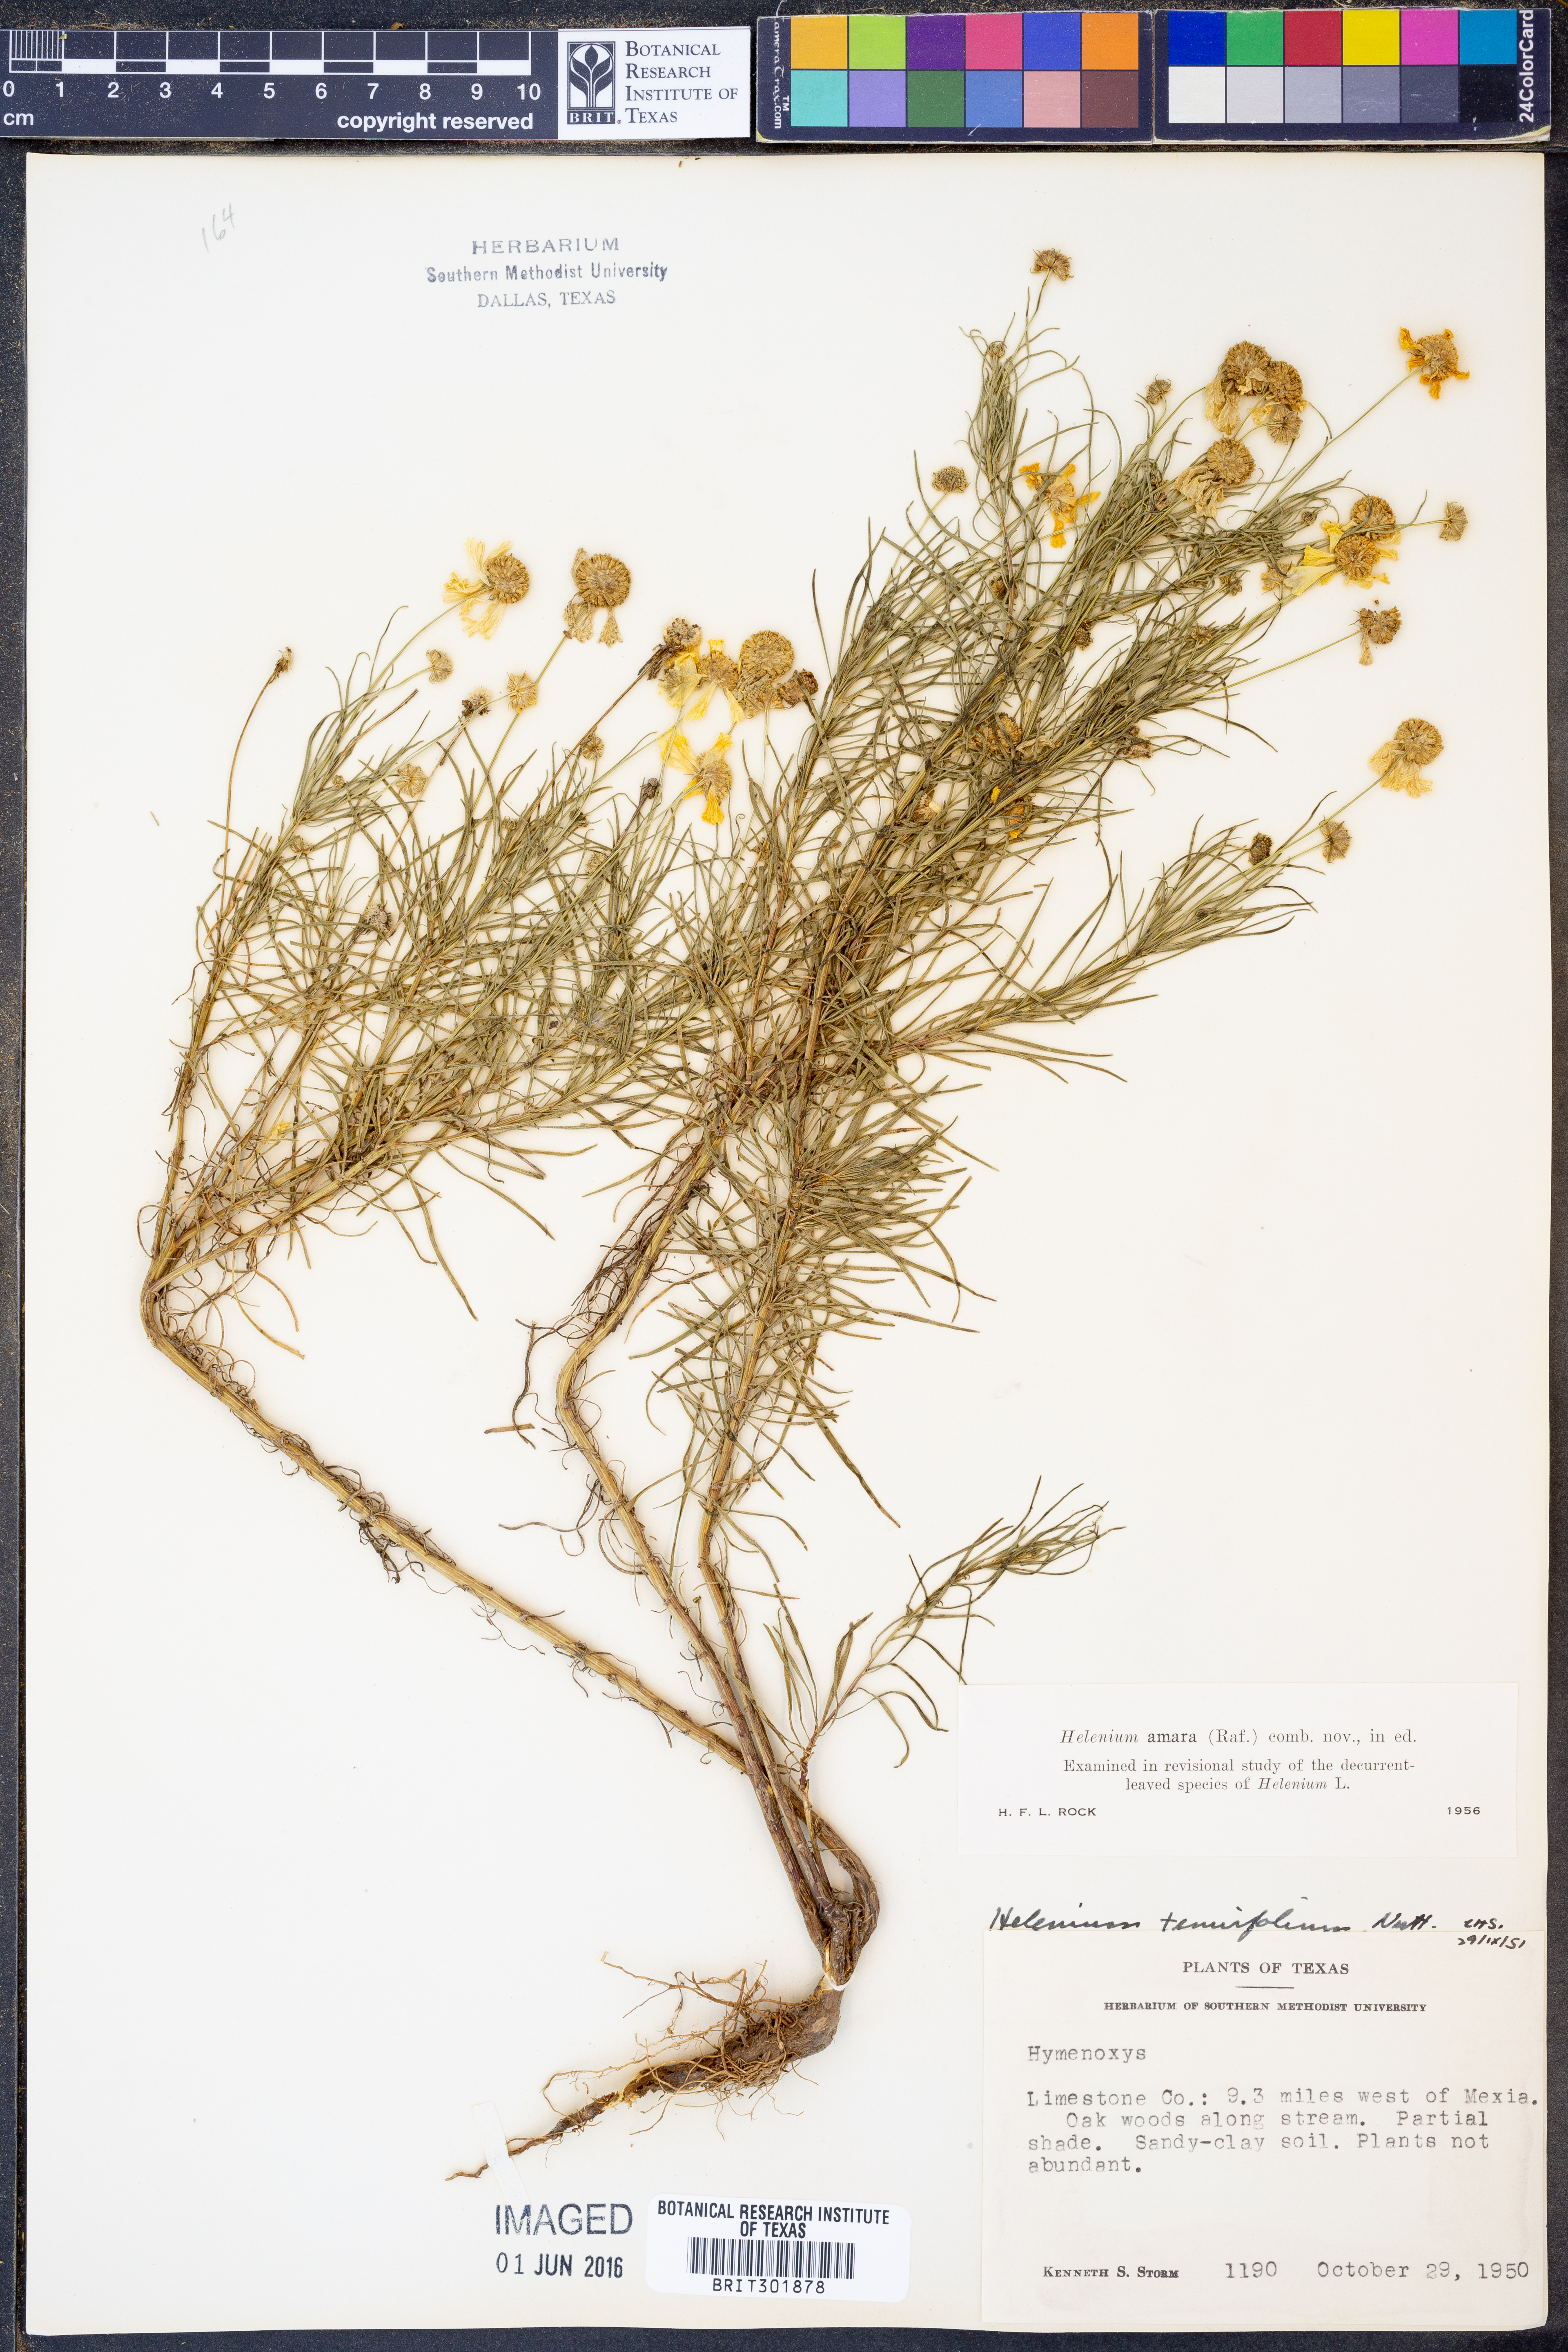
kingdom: Plantae
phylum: Tracheophyta
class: Magnoliopsida
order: Asterales
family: Asteraceae
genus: Helenium
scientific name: Helenium amarum
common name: Bitter sneezeweed
